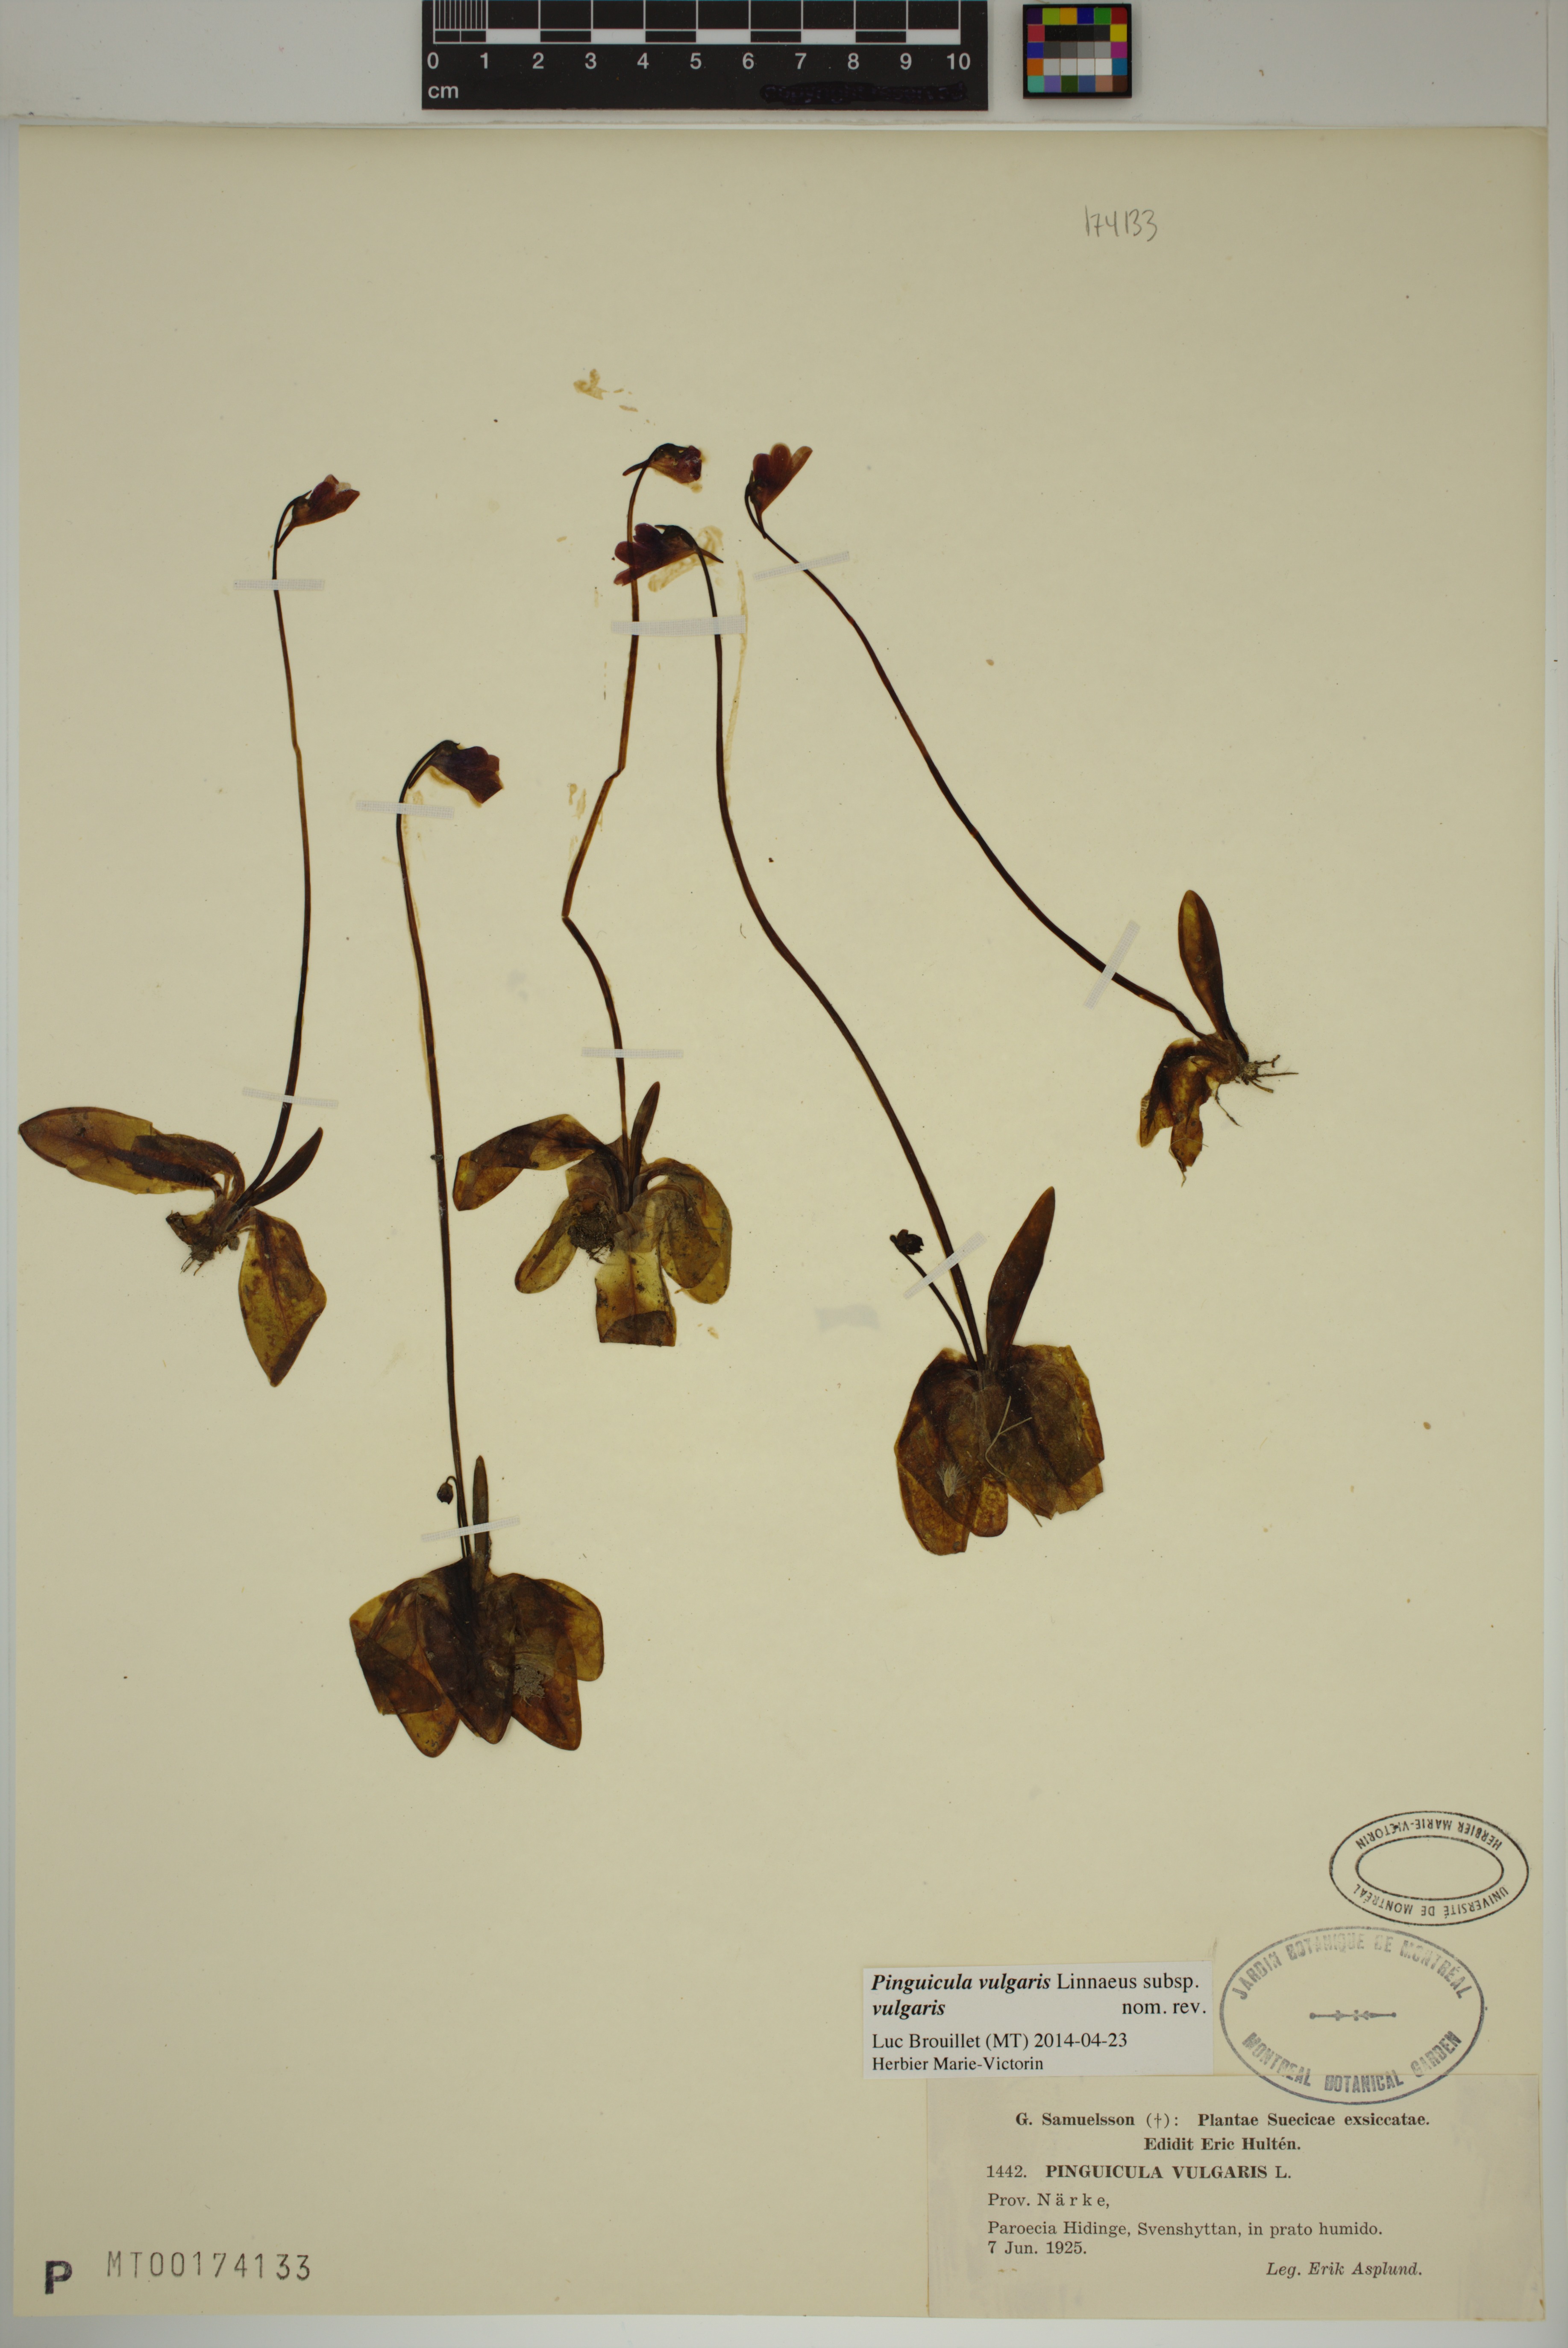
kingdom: Plantae
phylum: Tracheophyta
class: Magnoliopsida
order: Lamiales
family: Lentibulariaceae
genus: Pinguicula
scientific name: Pinguicula vulgaris
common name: Common butterwort
